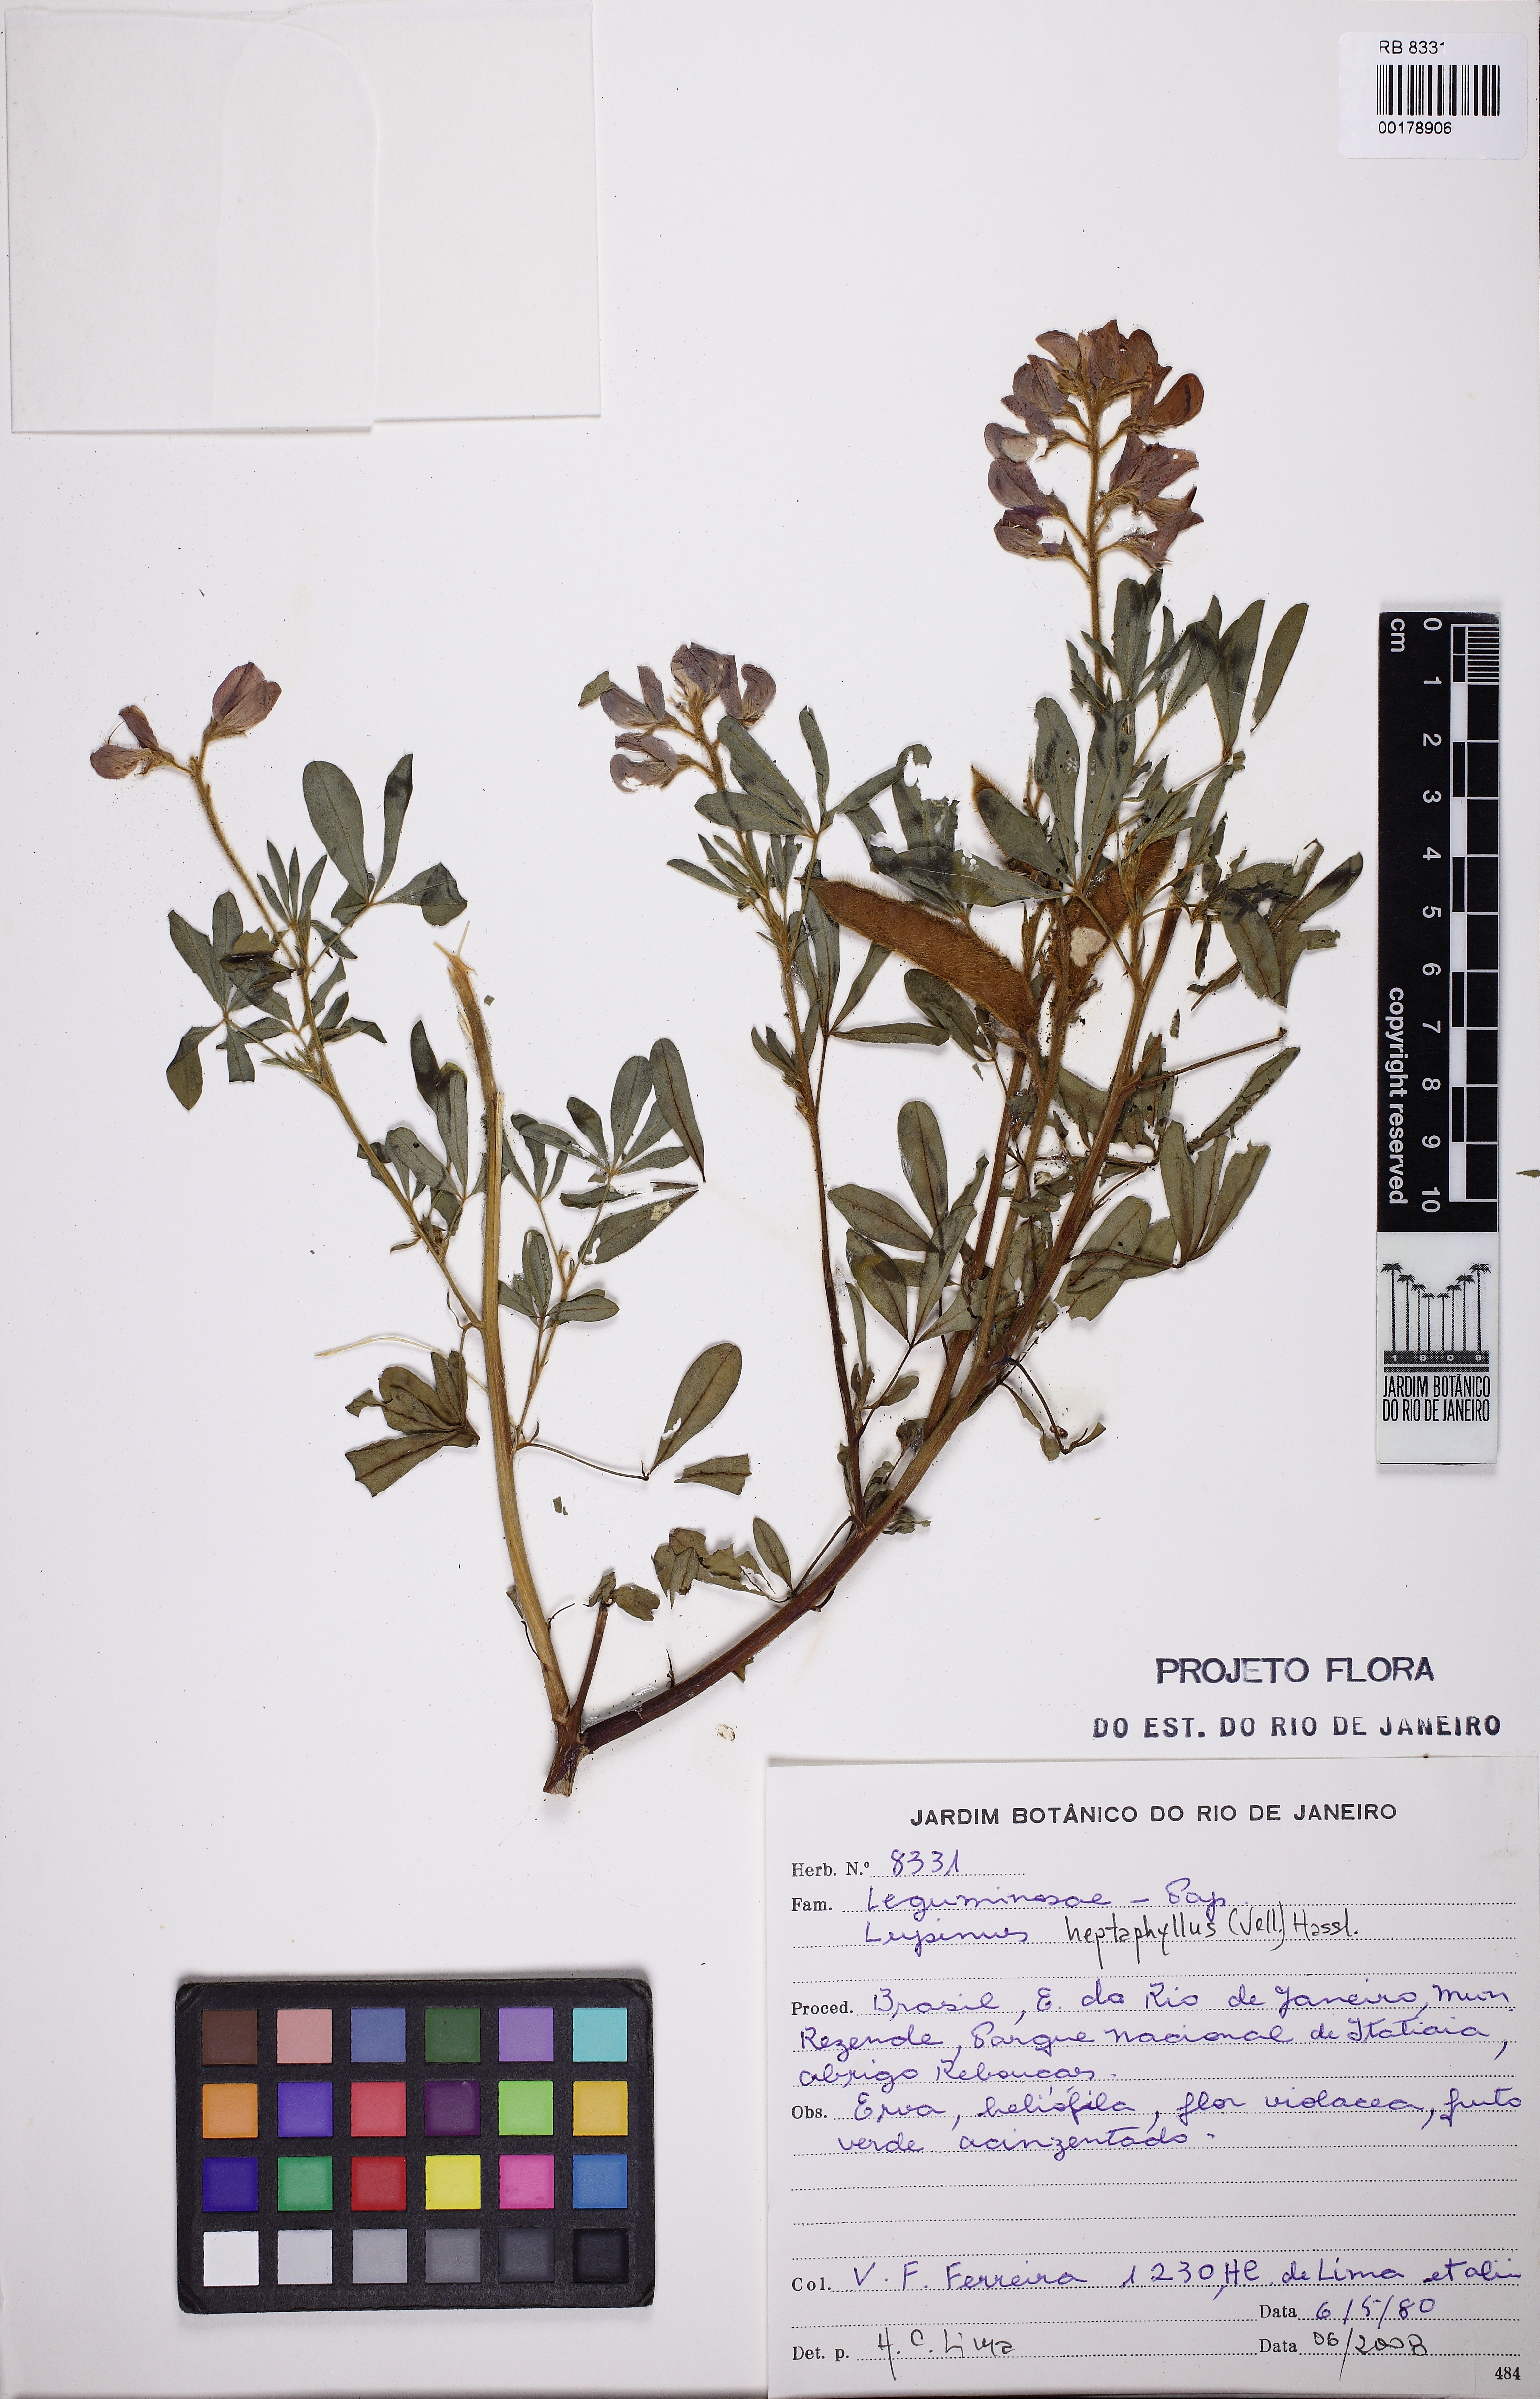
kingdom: Plantae
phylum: Tracheophyta
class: Magnoliopsida
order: Fabales
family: Fabaceae
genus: Lupinus
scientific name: Lupinus heptaphyllus
